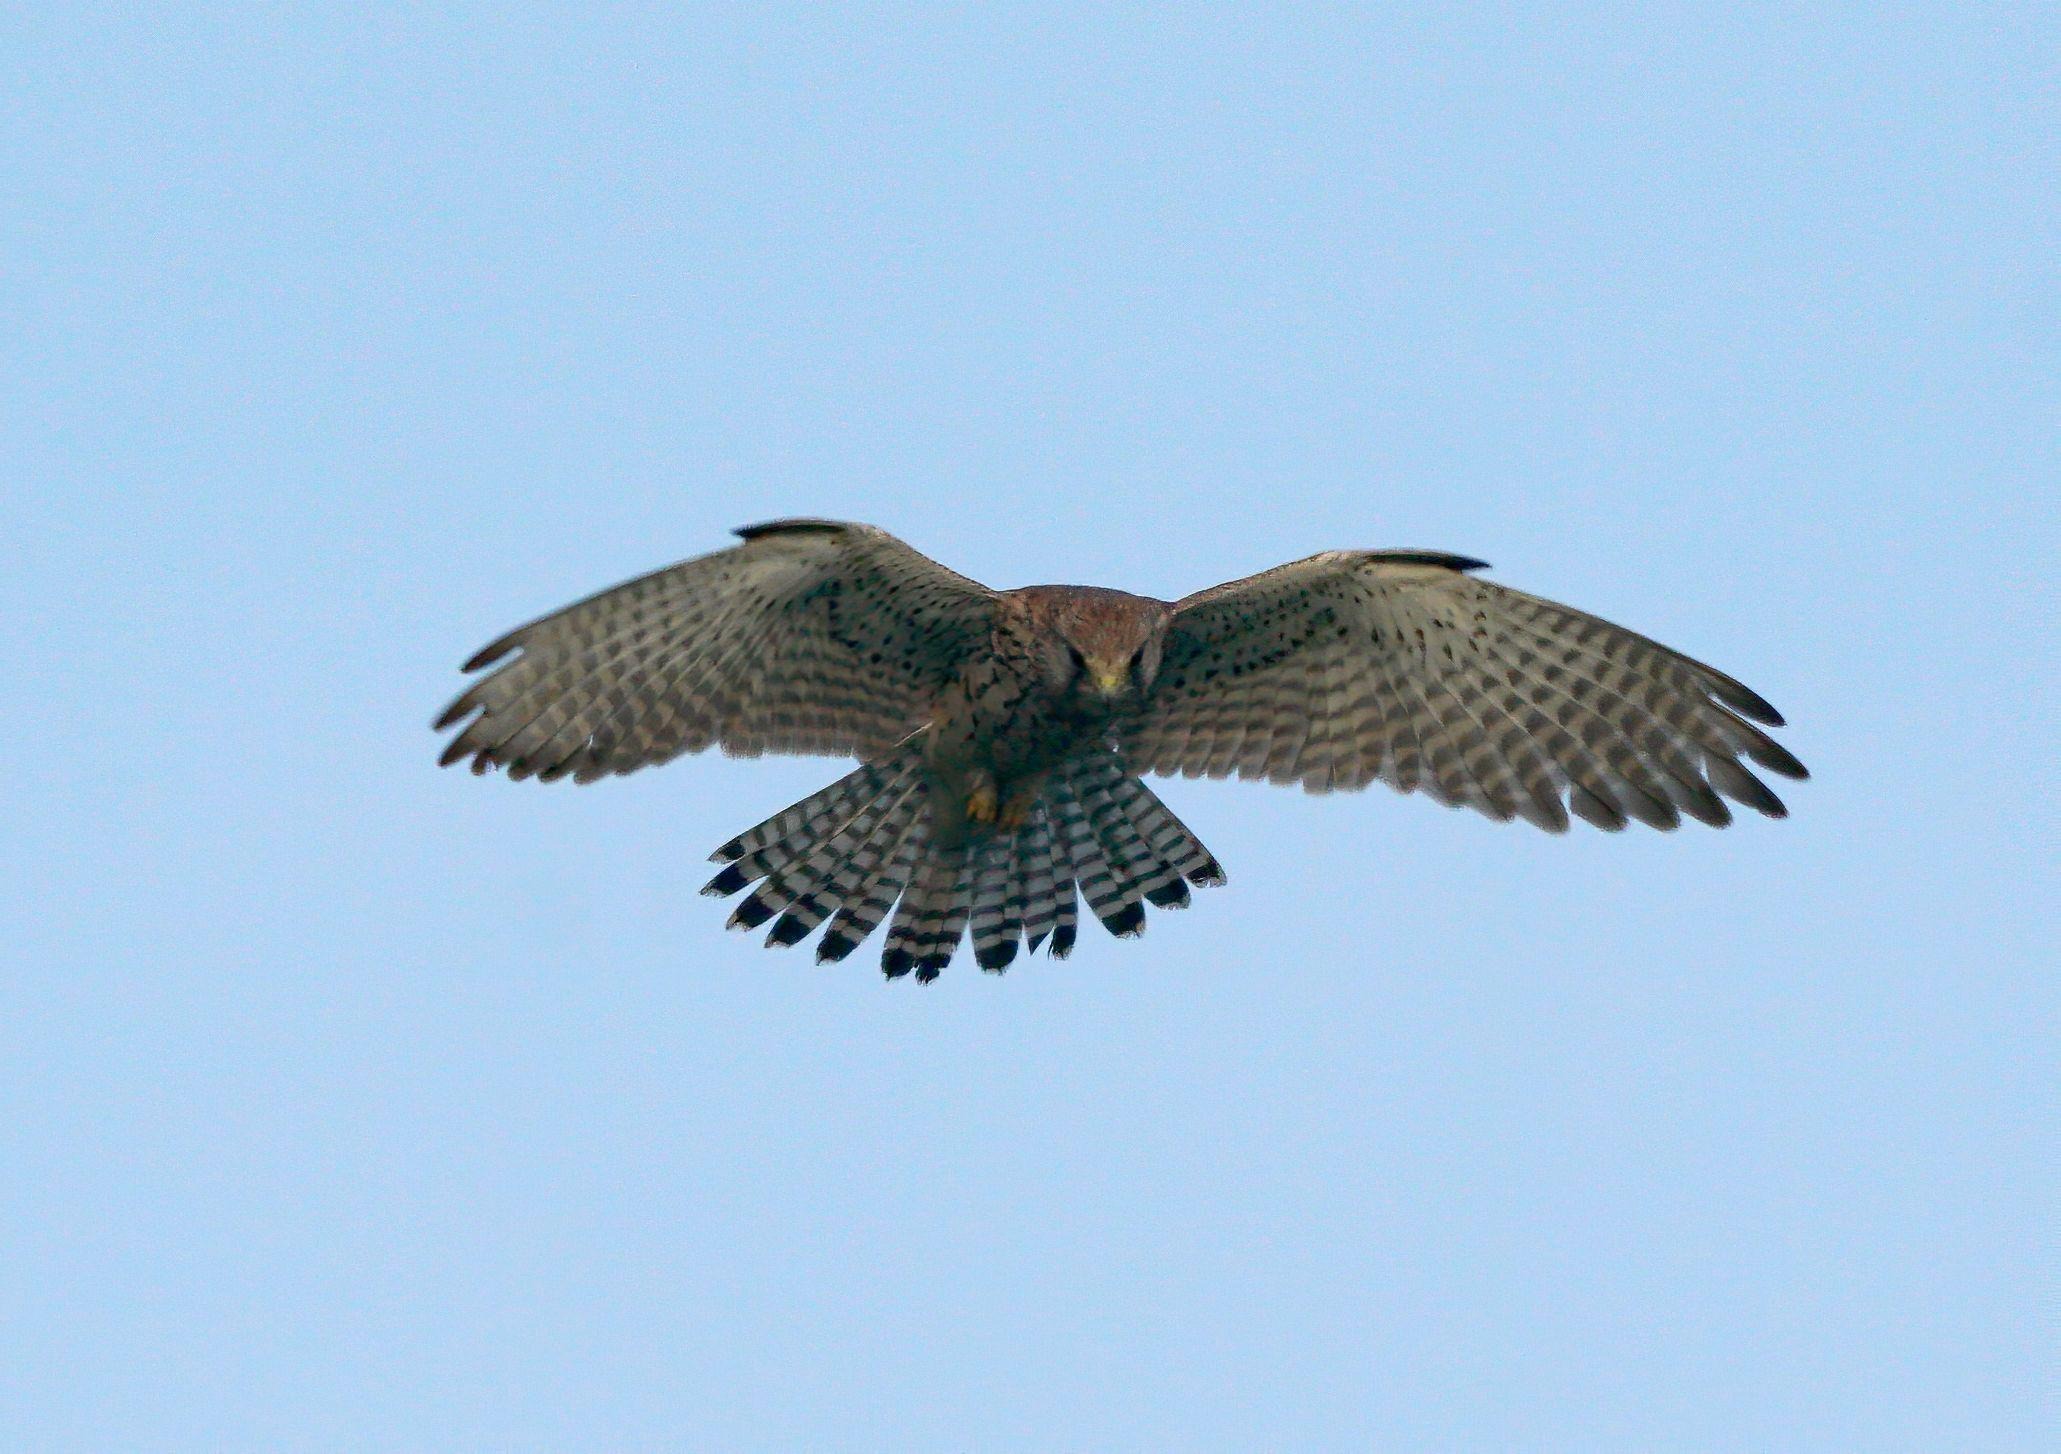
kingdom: Animalia
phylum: Chordata
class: Aves
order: Falconiformes
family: Falconidae
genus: Falco
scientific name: Falco tinnunculus
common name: Tårnfalk
